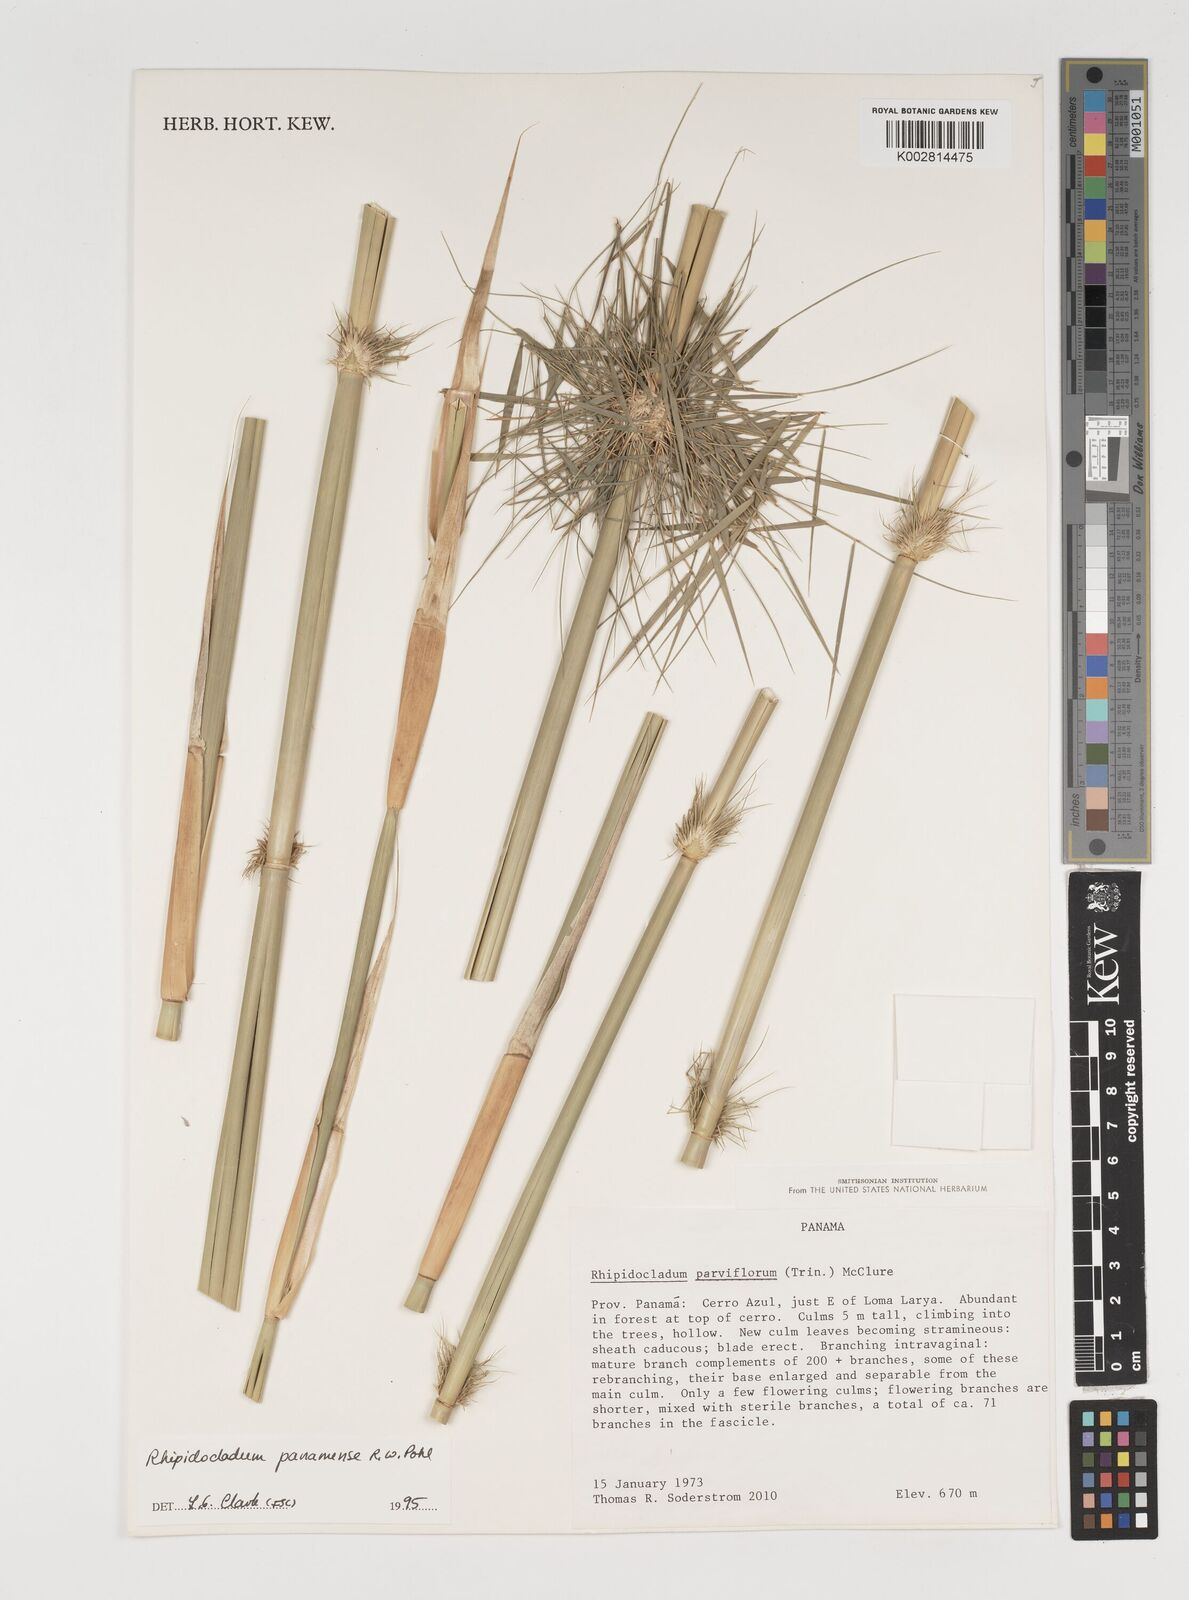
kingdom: Plantae
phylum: Tracheophyta
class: Liliopsida
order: Poales
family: Poaceae
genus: Rhipidocladum
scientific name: Rhipidocladum panamense
